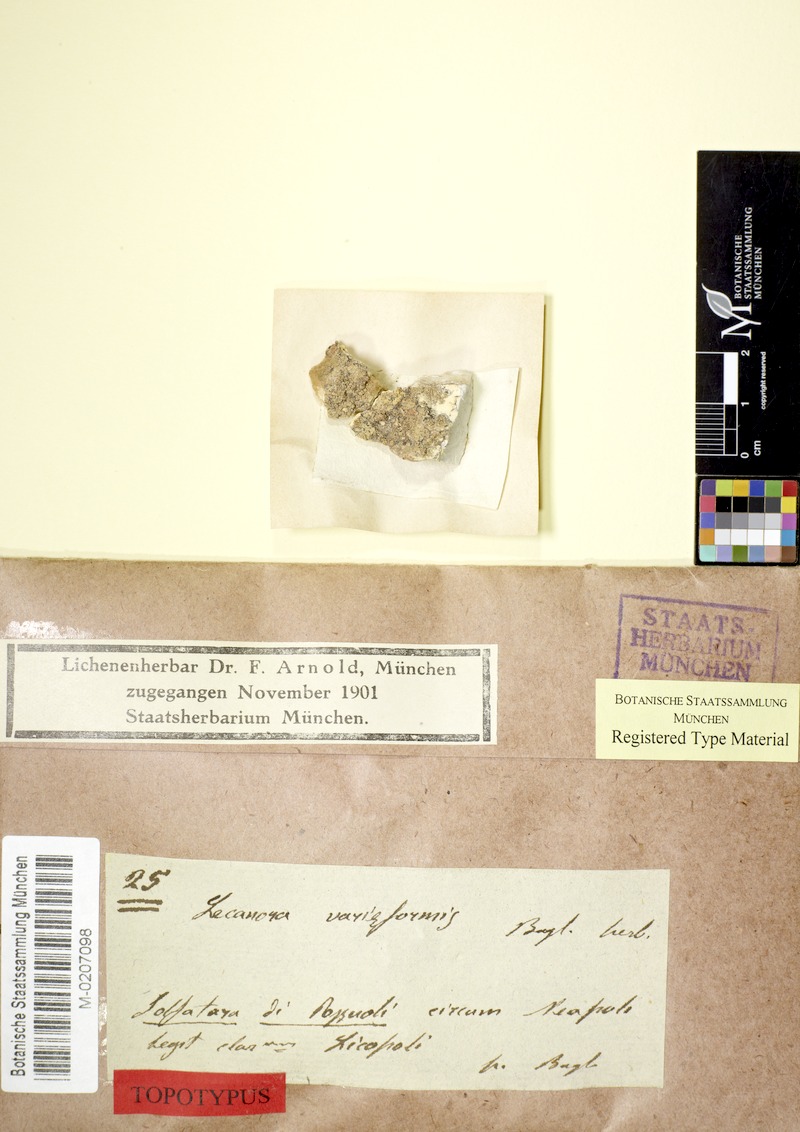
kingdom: Fungi
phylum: Ascomycota
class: Lecanoromycetes
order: Lecanorales
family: Lecanoraceae
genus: Lecanora
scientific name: Lecanora
